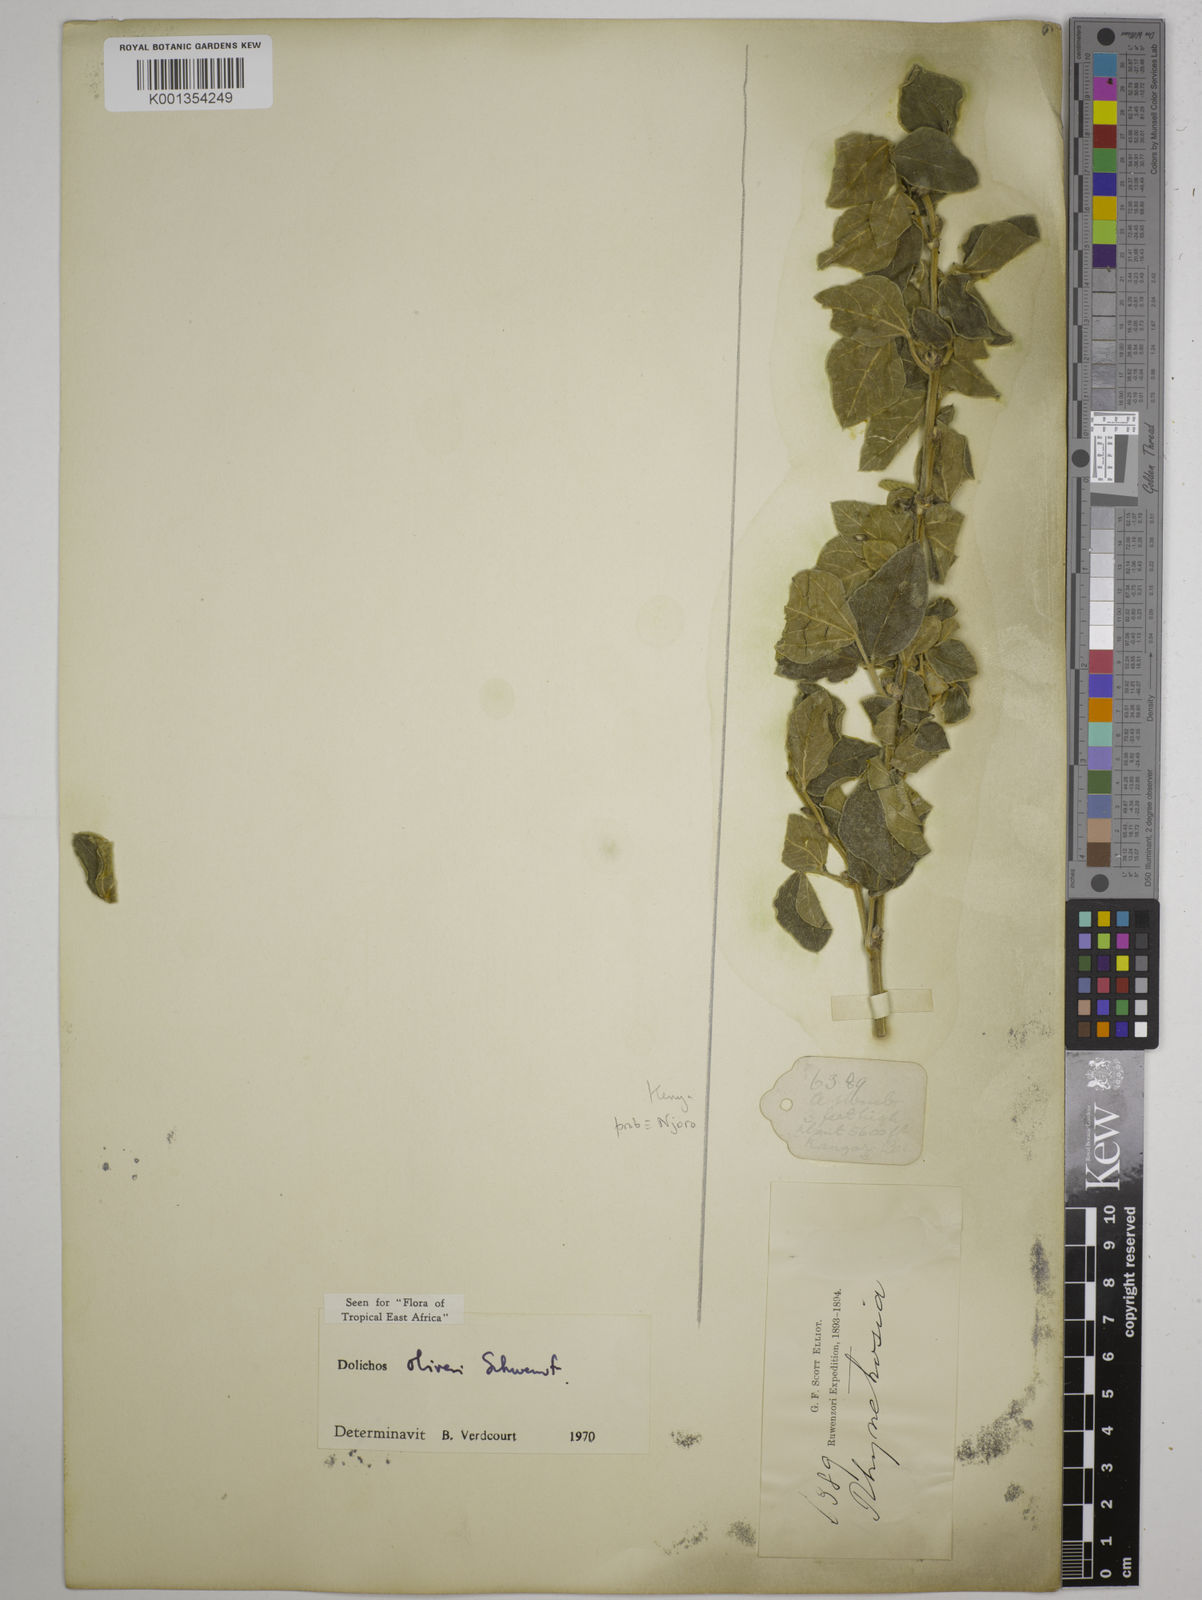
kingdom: Plantae
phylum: Tracheophyta
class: Magnoliopsida
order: Fabales
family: Fabaceae
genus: Dolichos
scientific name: Dolichos oliveri
